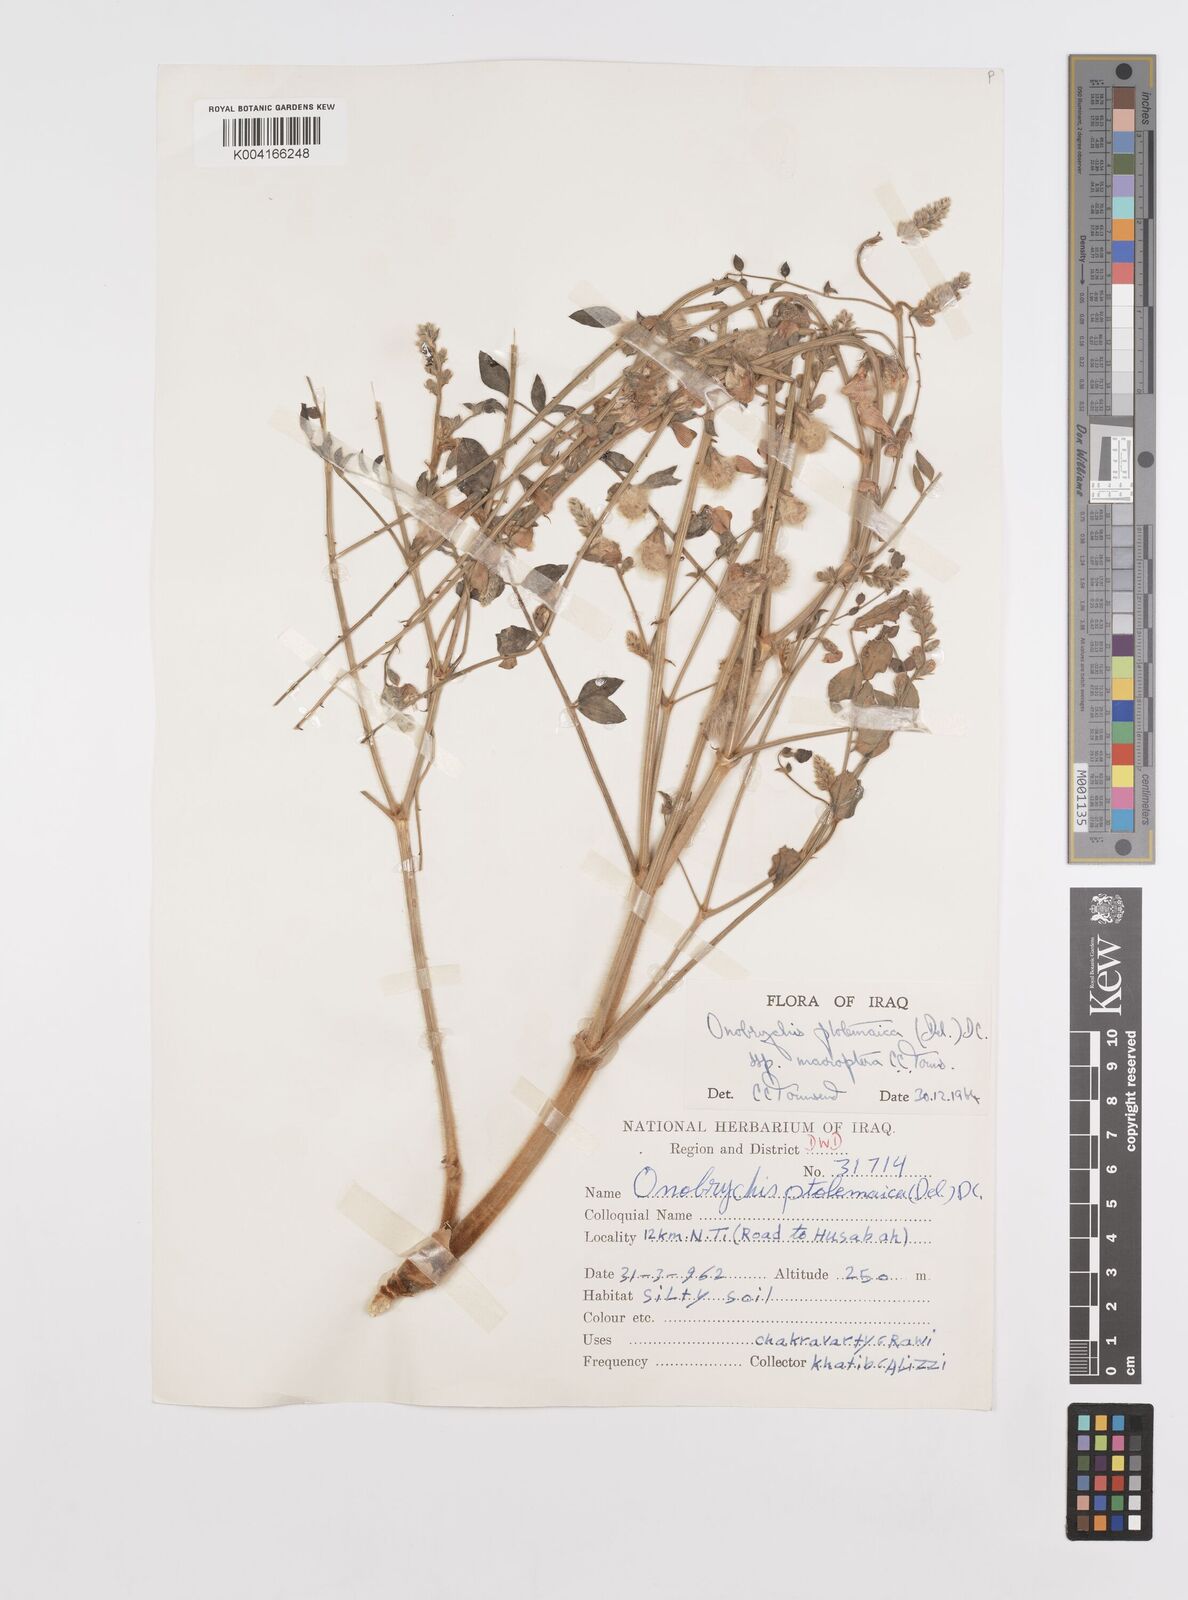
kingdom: Plantae
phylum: Tracheophyta
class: Magnoliopsida
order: Fabales
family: Fabaceae
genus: Onobrychis
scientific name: Onobrychis ptolemaica
